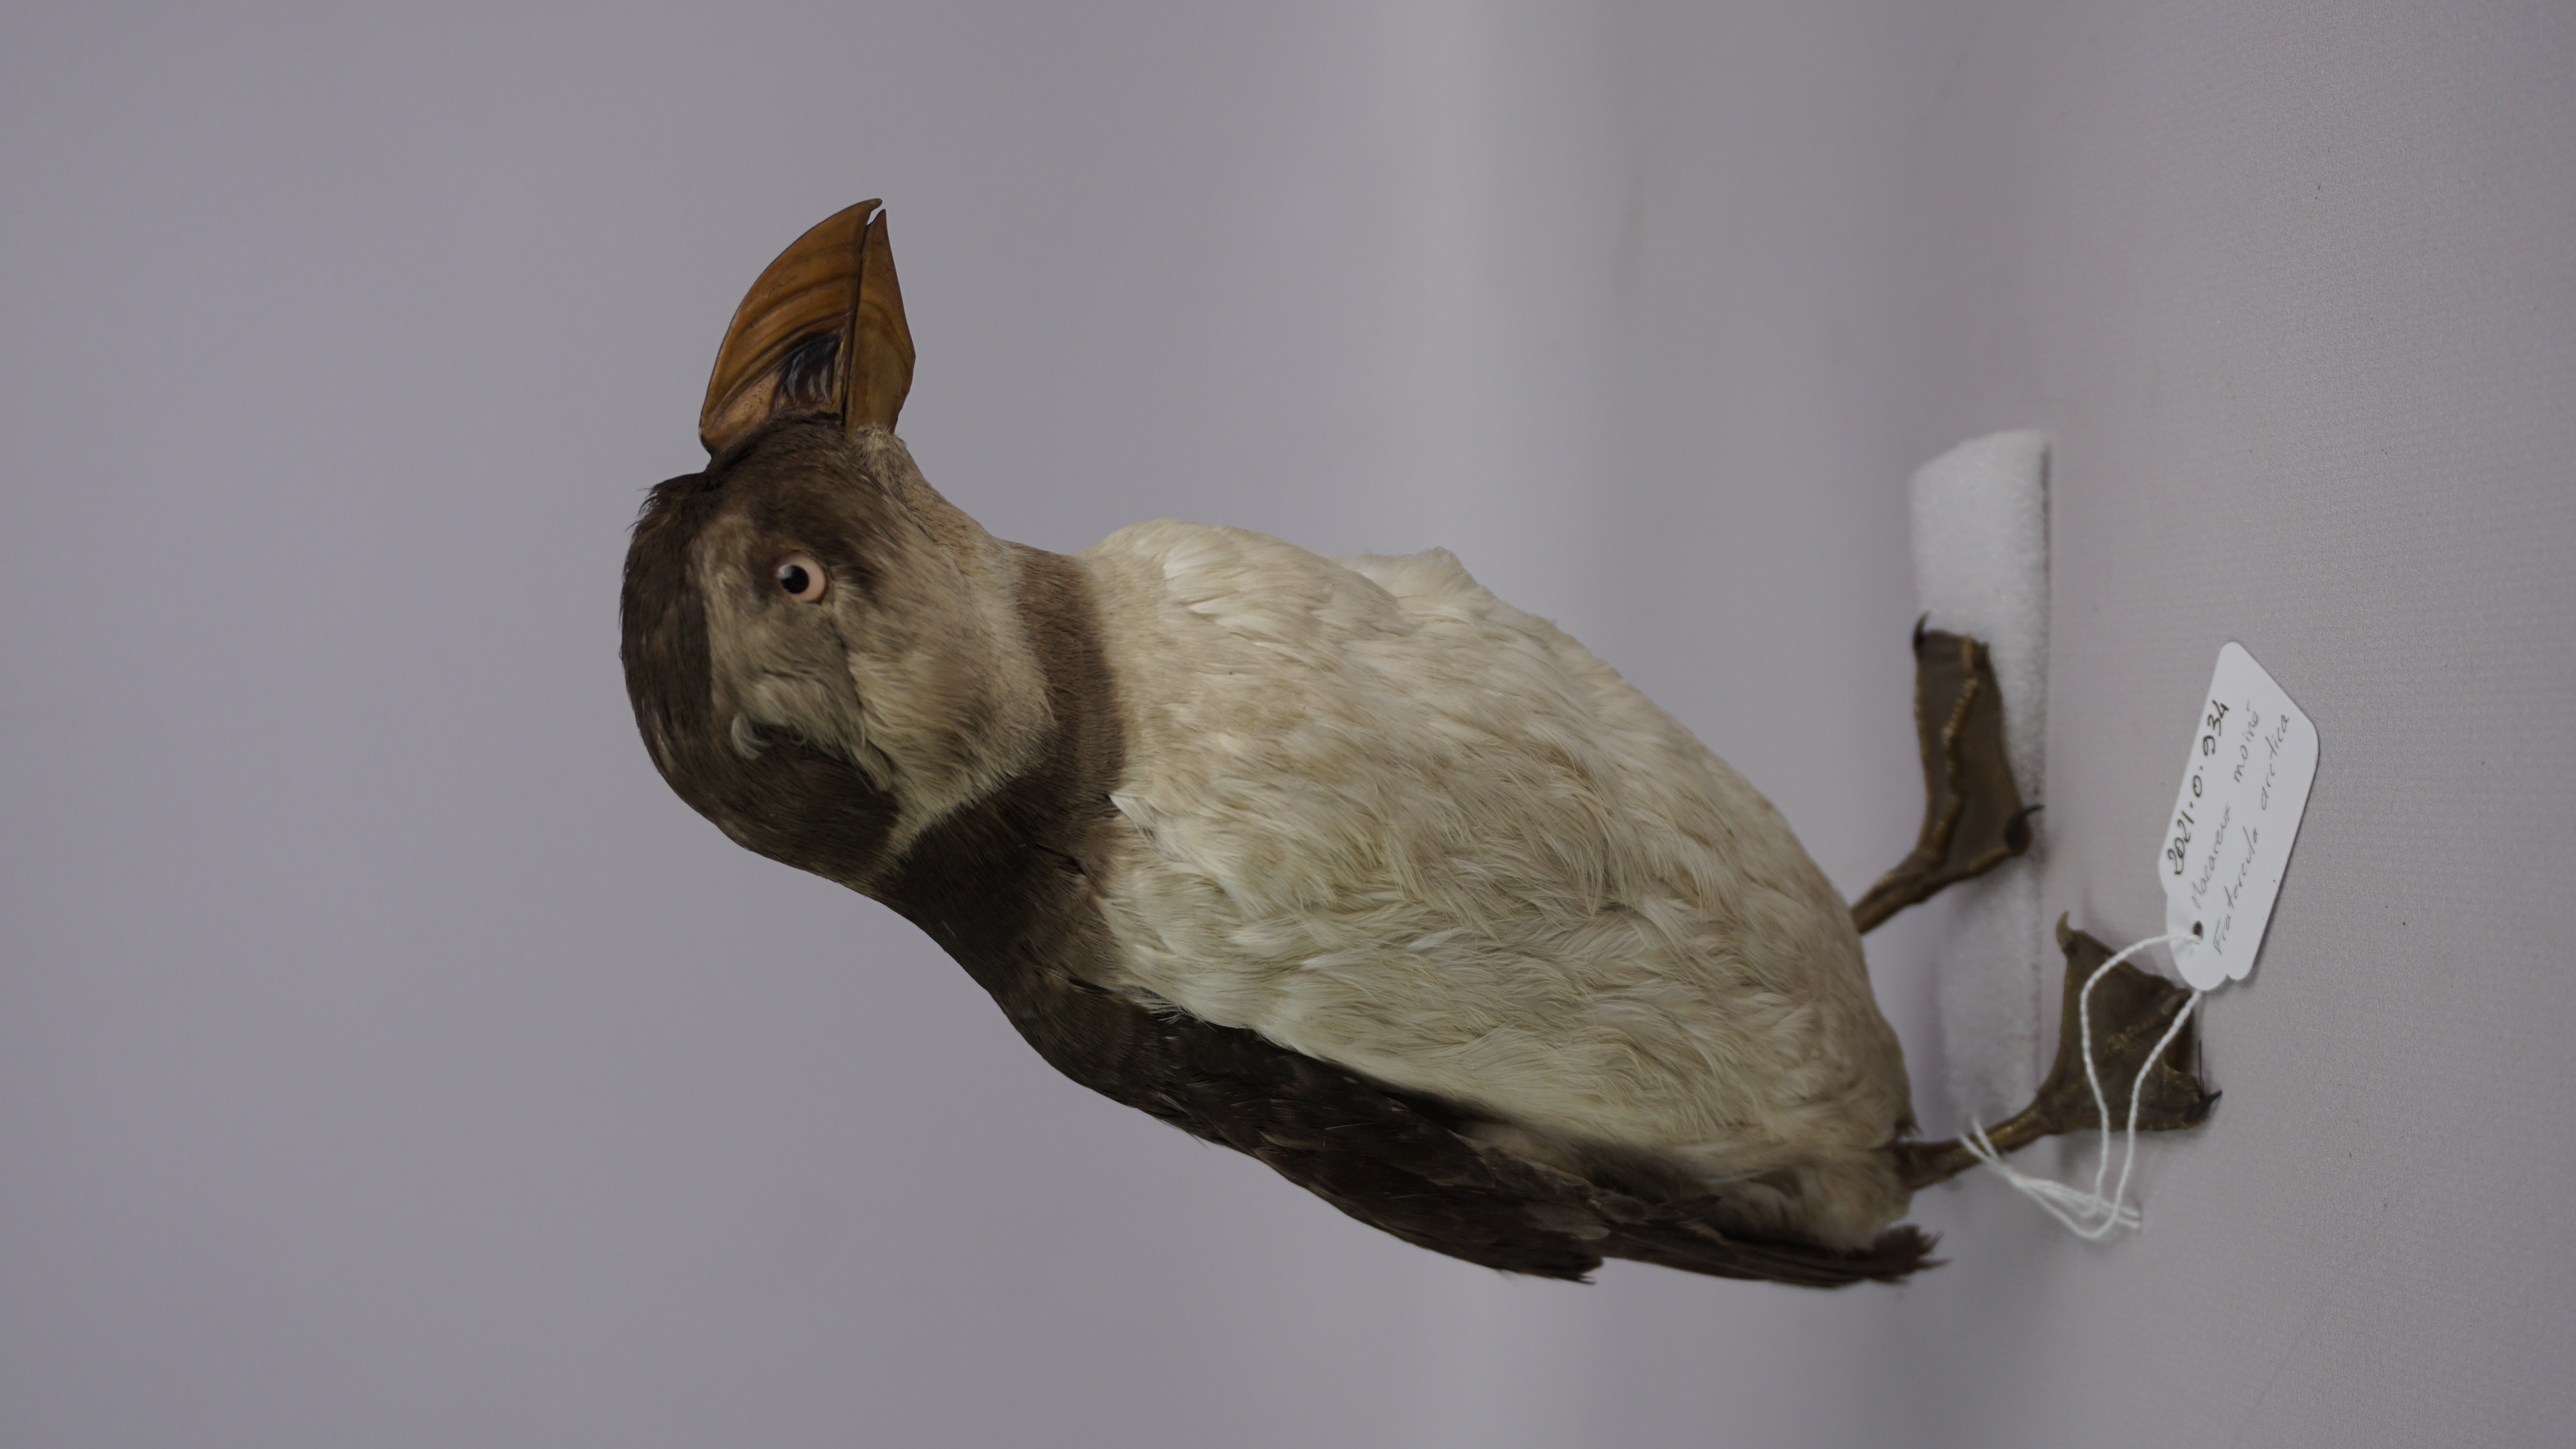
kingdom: Animalia
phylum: Chordata
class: Aves
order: Charadriiformes
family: Alcidae
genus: Fratercula
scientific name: Fratercula arctica
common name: Atlantic puffin
